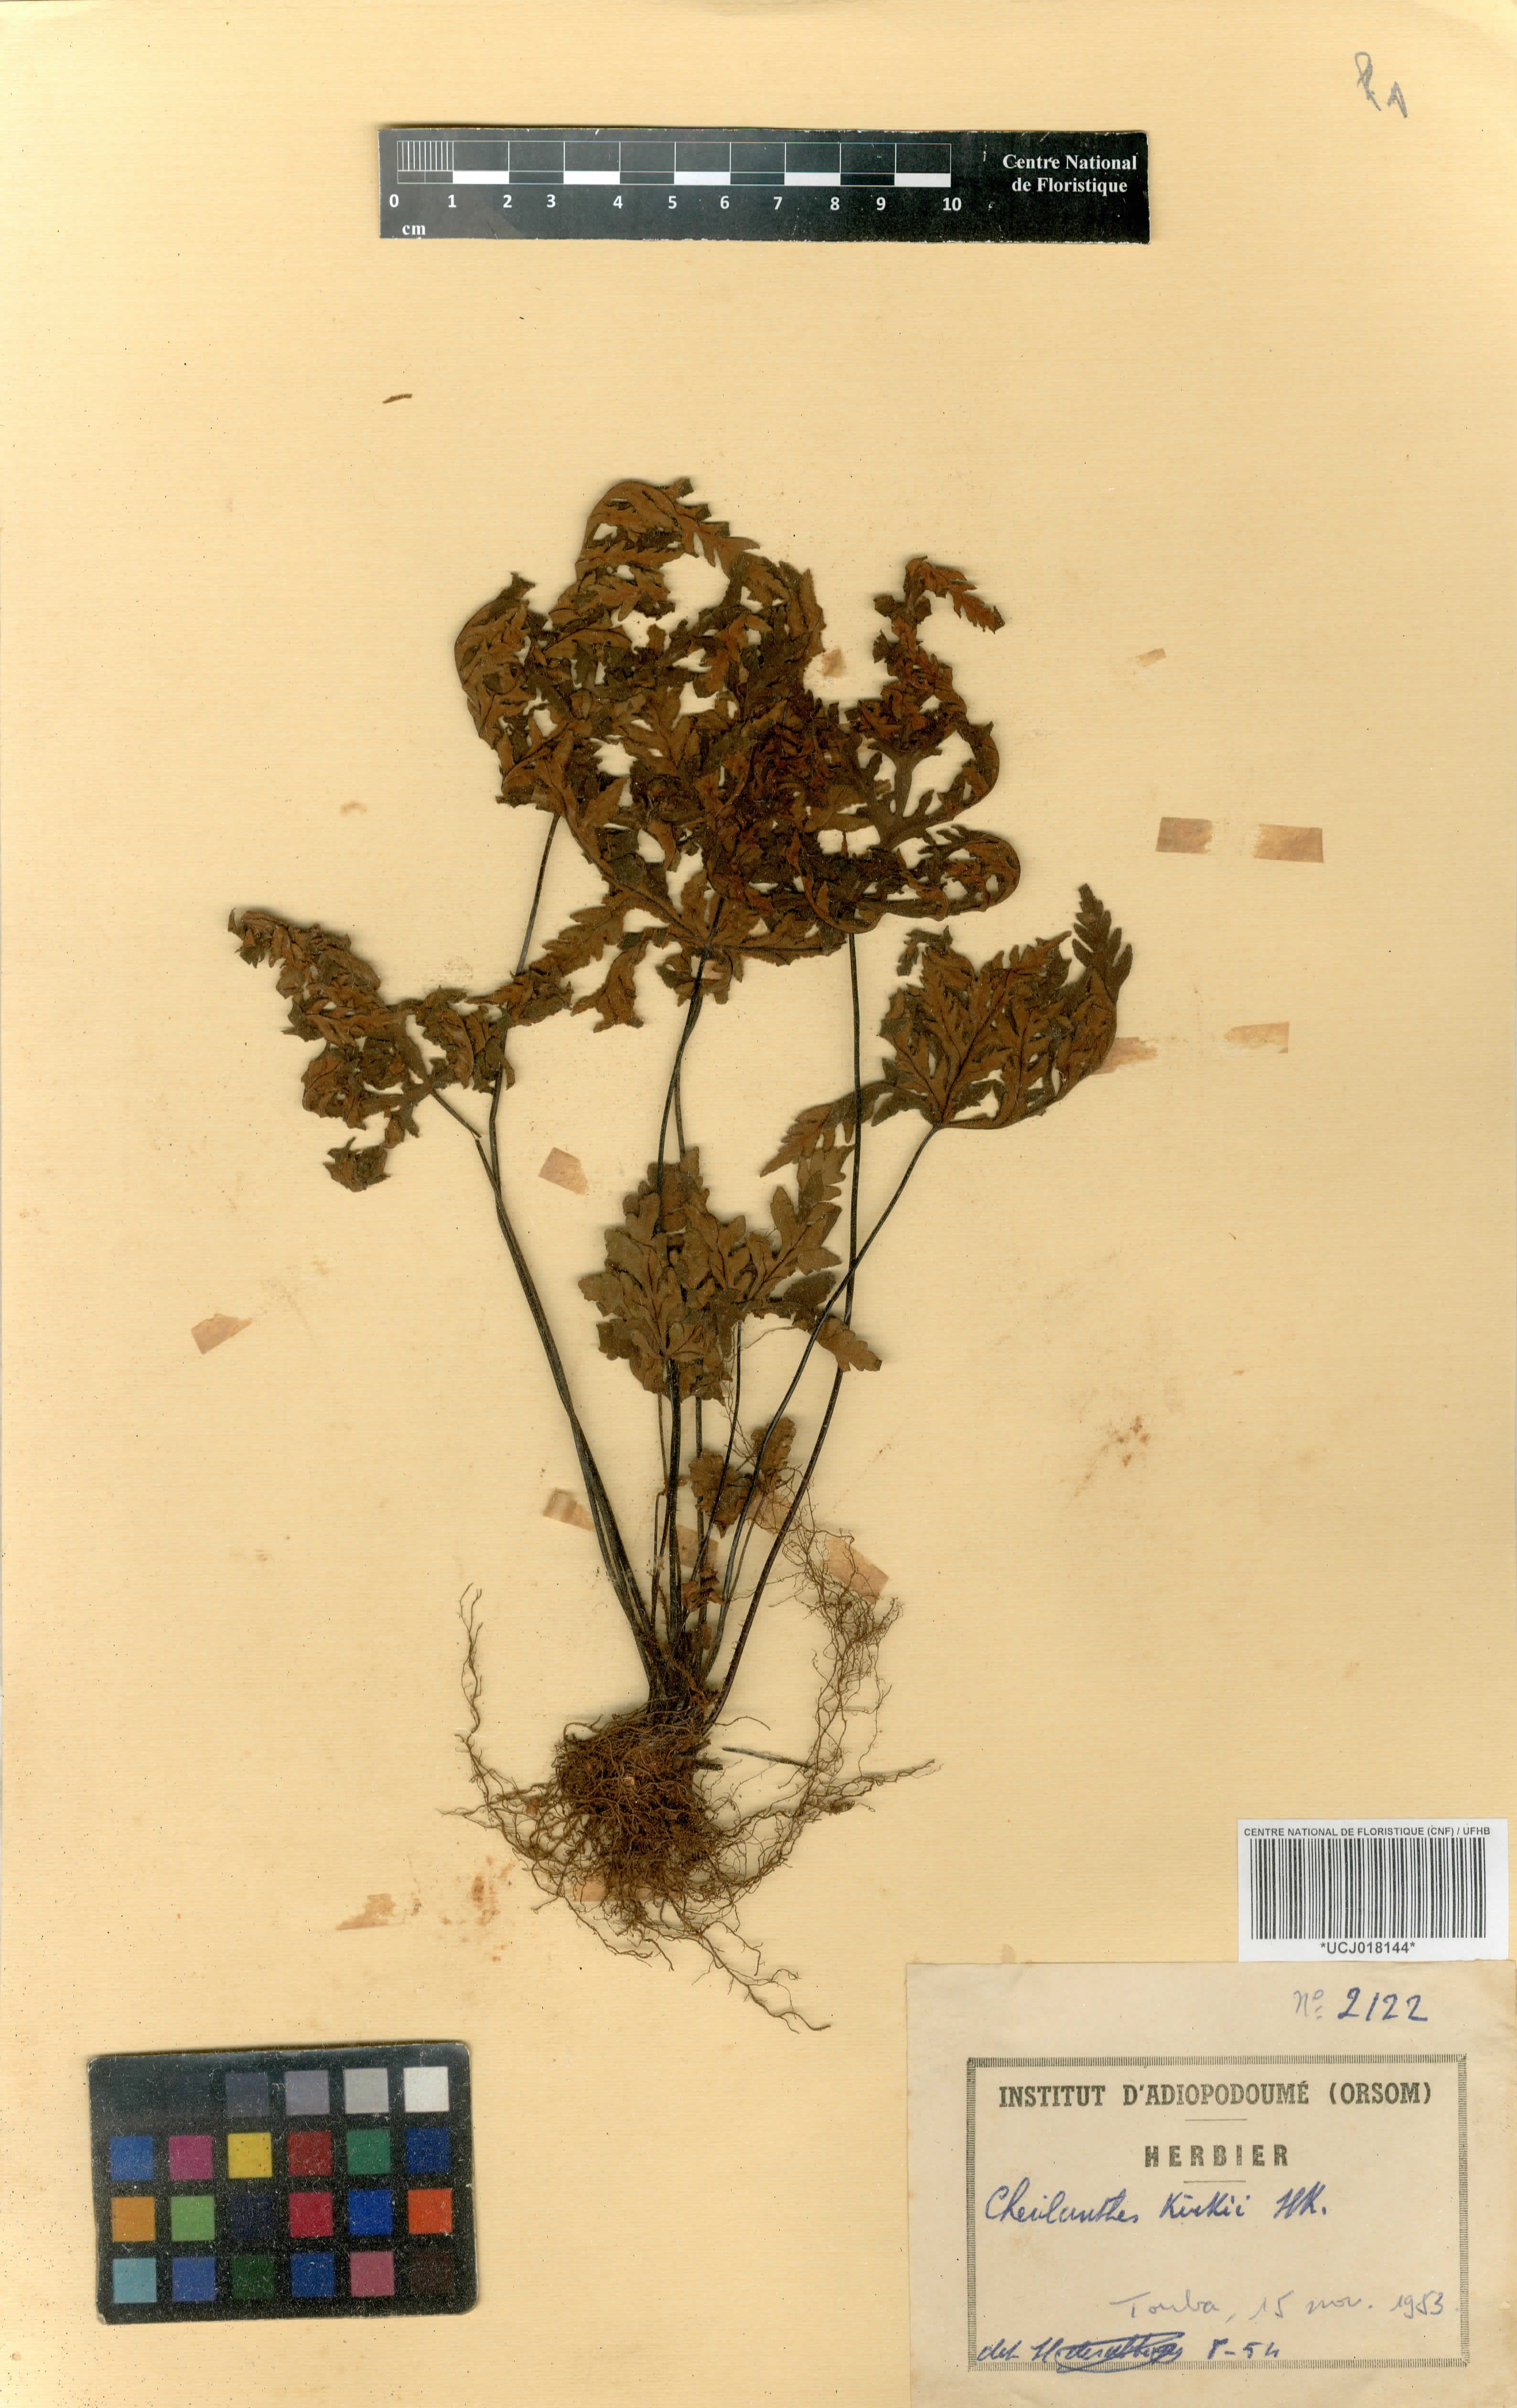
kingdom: Plantae
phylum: Tracheophyta
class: Polypodiopsida
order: Polypodiales
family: Pteridaceae
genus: Notholaena
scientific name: Notholaena
